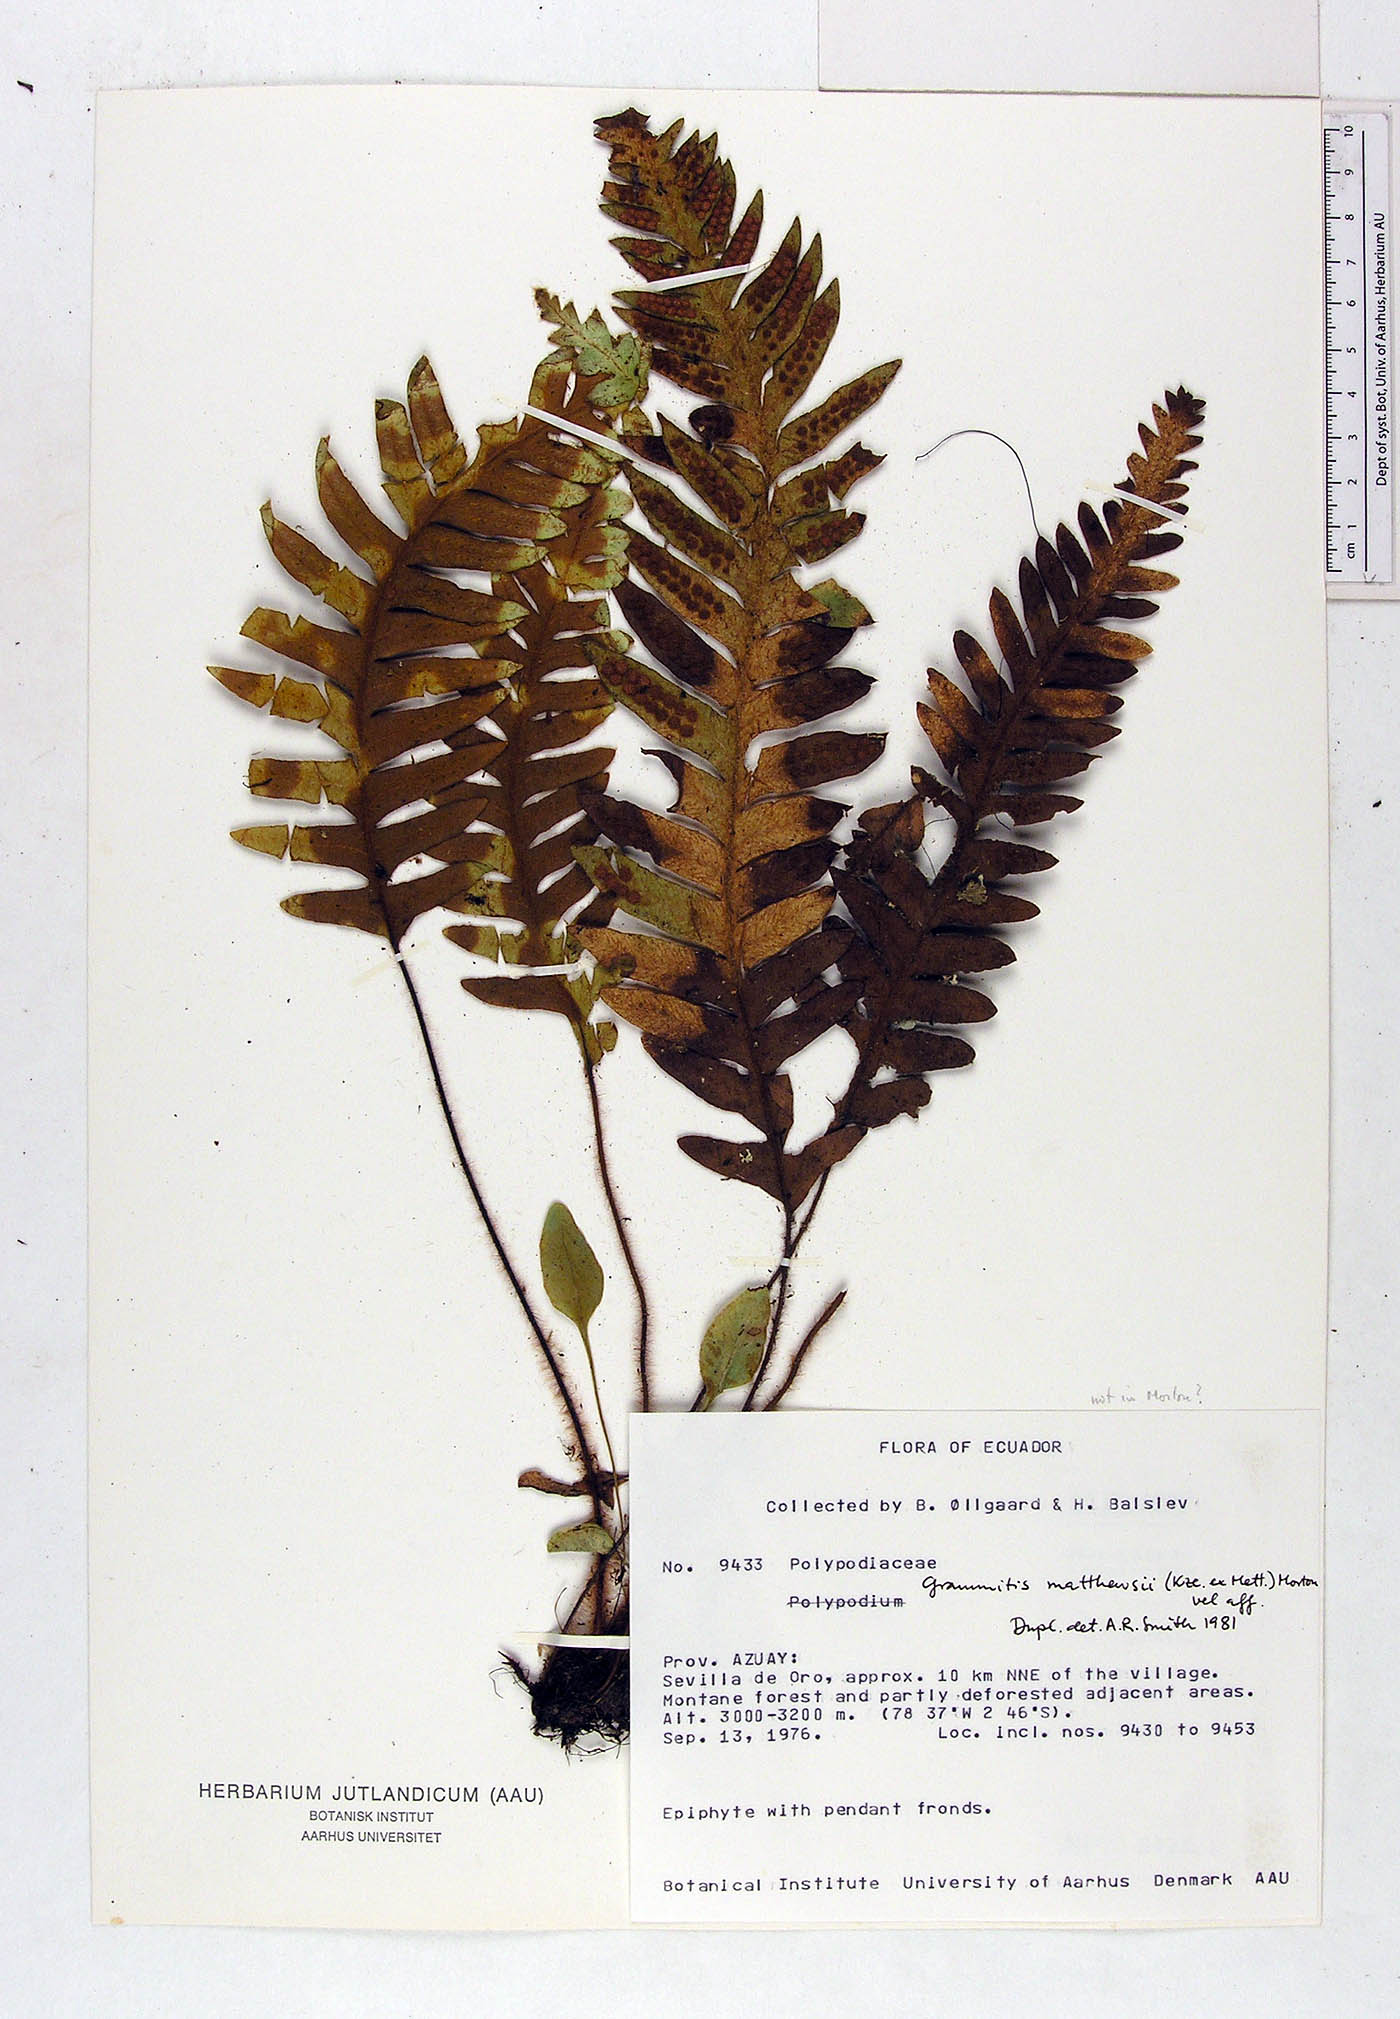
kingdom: Plantae
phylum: Tracheophyta
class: Polypodiopsida
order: Polypodiales
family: Polypodiaceae
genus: Enterosora
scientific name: Enterosora mathewsii
